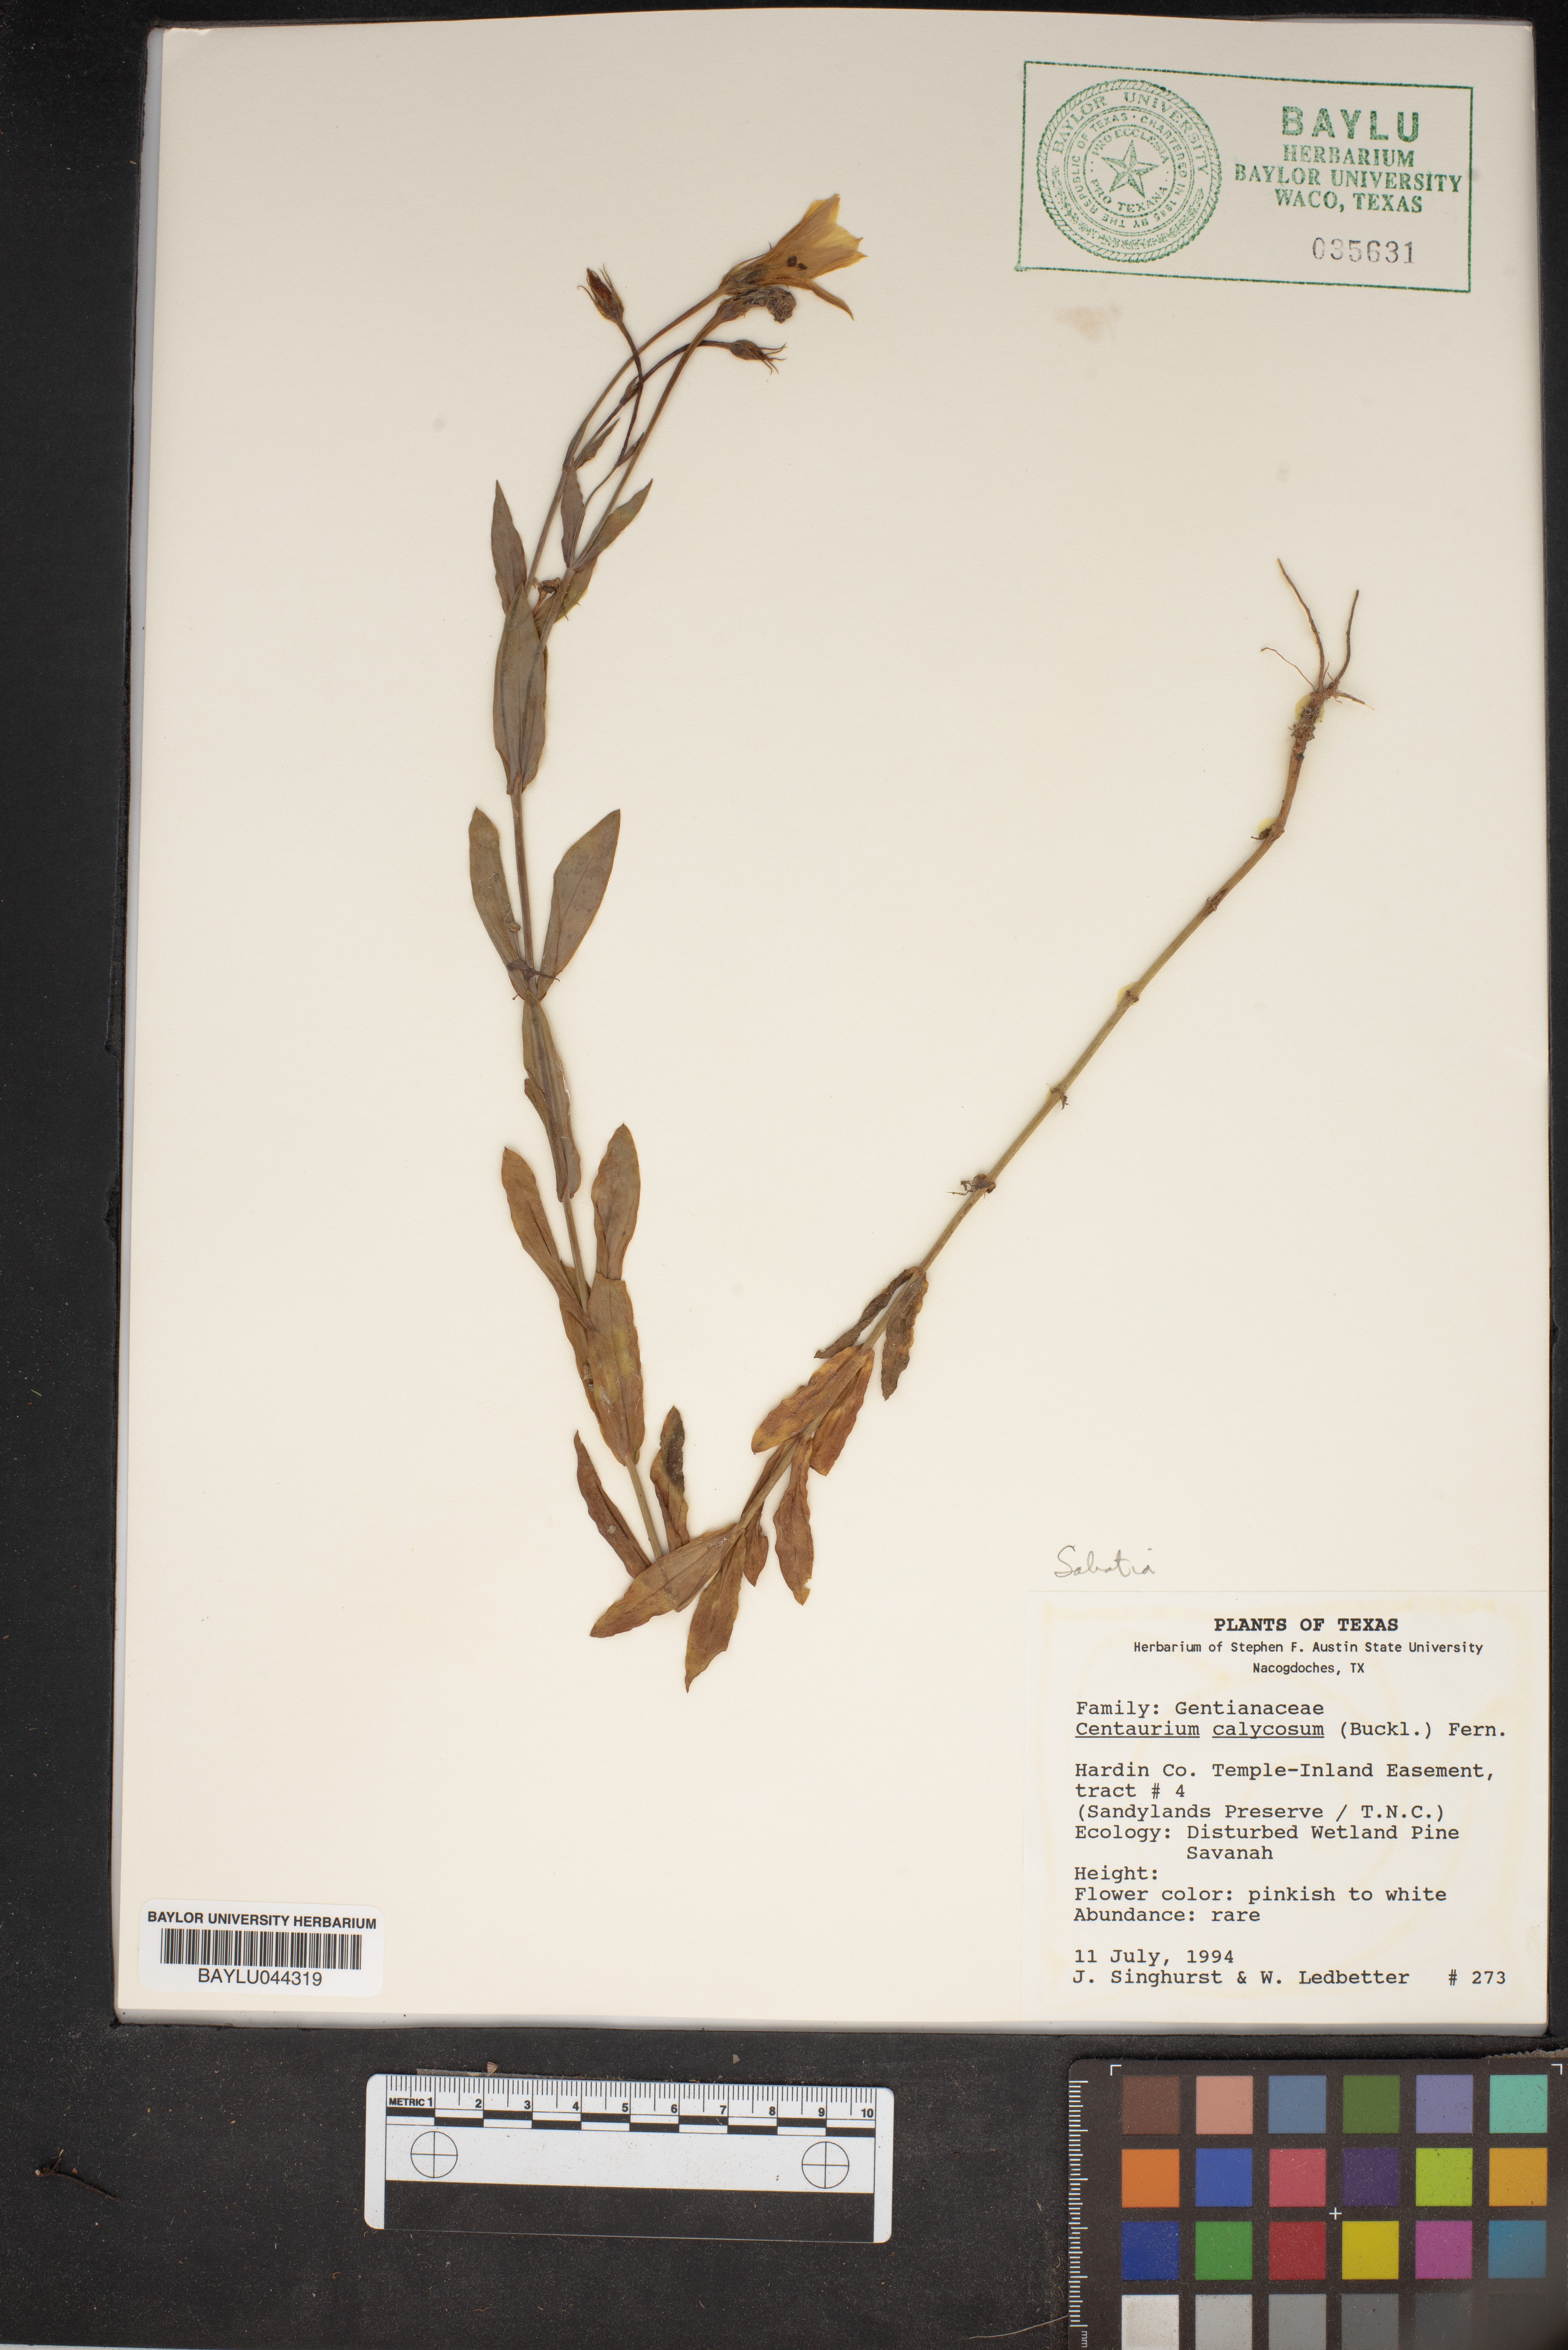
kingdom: Plantae
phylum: Tracheophyta
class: Magnoliopsida
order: Gentianales
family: Gentianaceae
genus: Zeltnera
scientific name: Zeltnera calycosa
